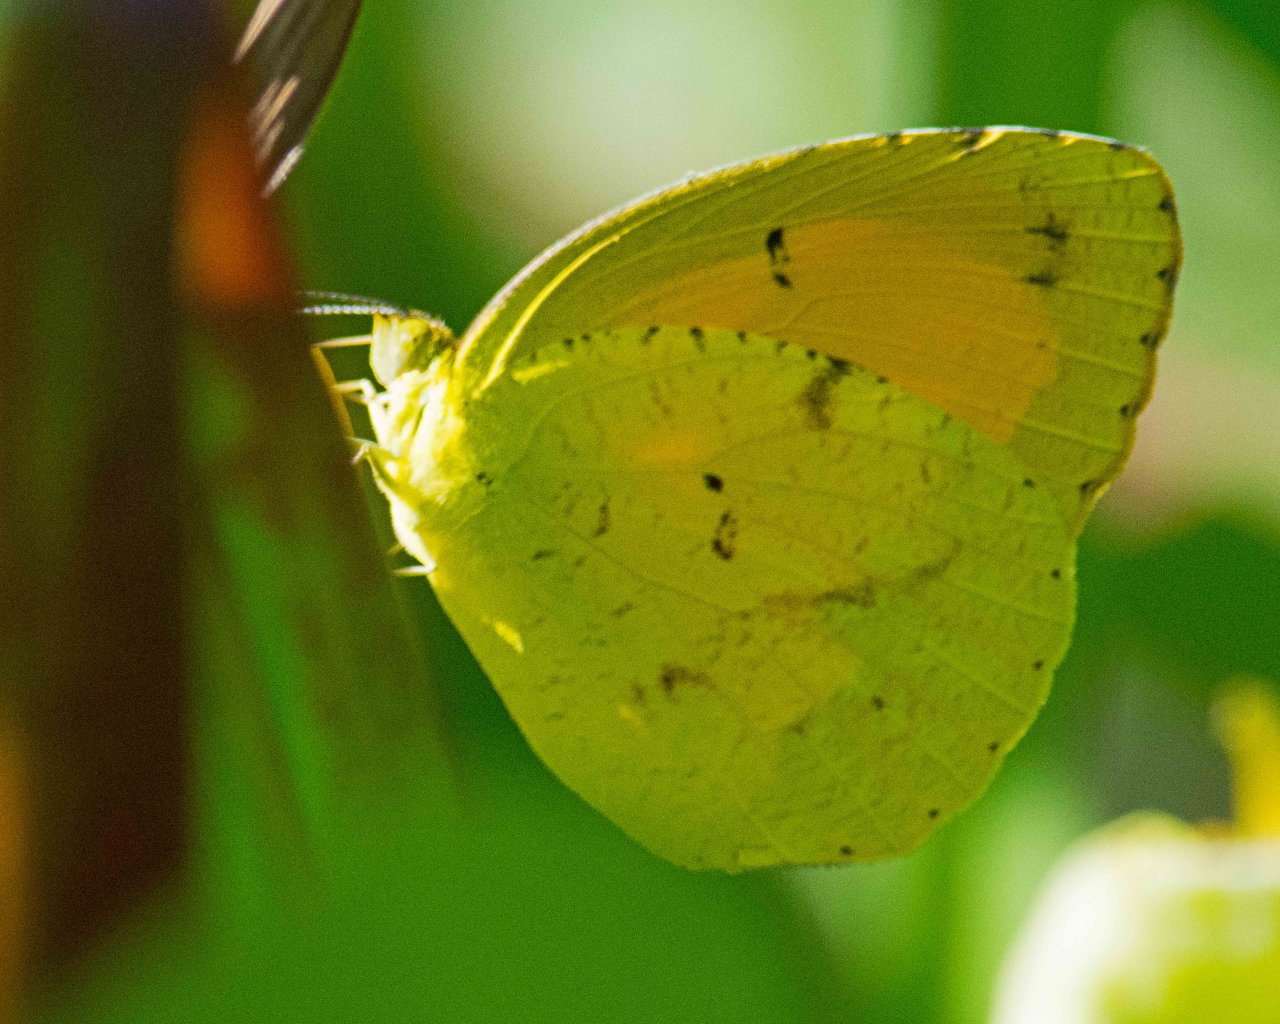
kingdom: Animalia
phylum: Arthropoda
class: Insecta
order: Lepidoptera
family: Pieridae
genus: Abaeis
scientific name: Abaeis nicippe
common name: Sleepy Orange
